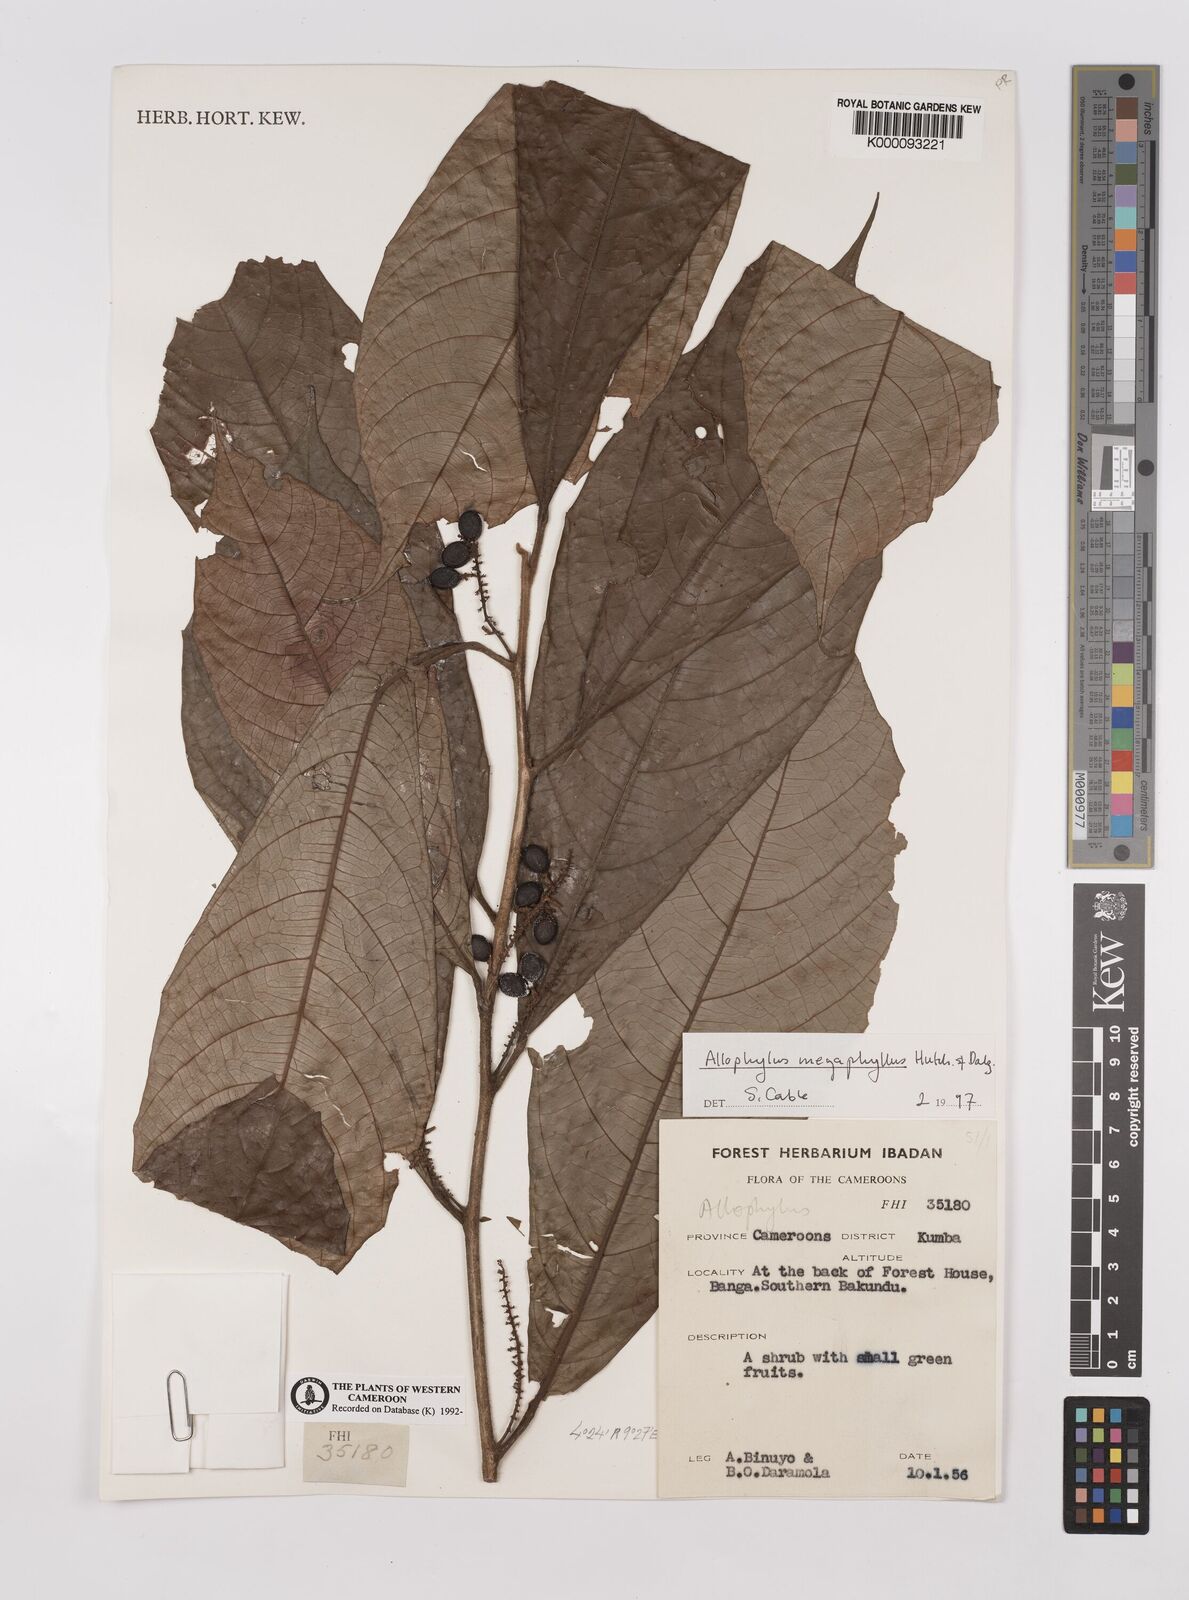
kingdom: Plantae
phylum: Tracheophyta
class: Magnoliopsida
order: Sapindales
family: Sapindaceae
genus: Allophylus
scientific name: Allophylus megaphyllus
